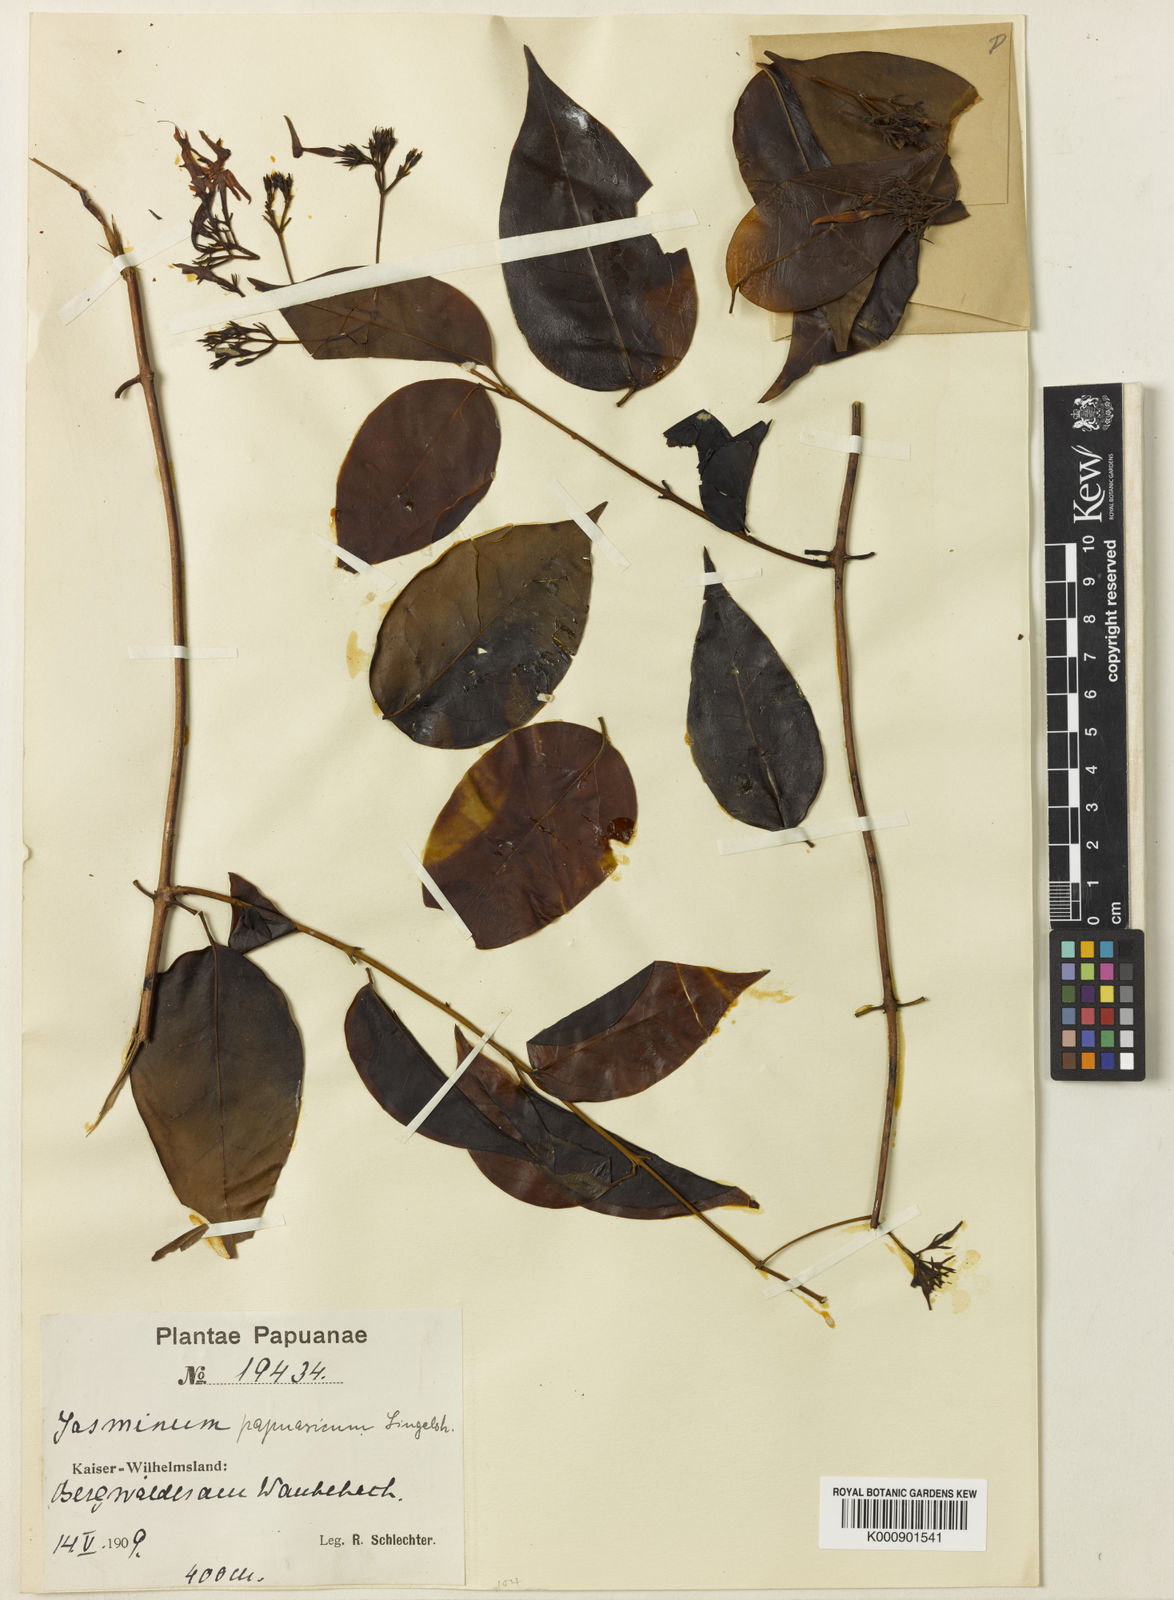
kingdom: Plantae
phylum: Tracheophyta
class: Magnoliopsida
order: Lamiales
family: Oleaceae
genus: Jasminum
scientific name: Jasminum papuasicum
